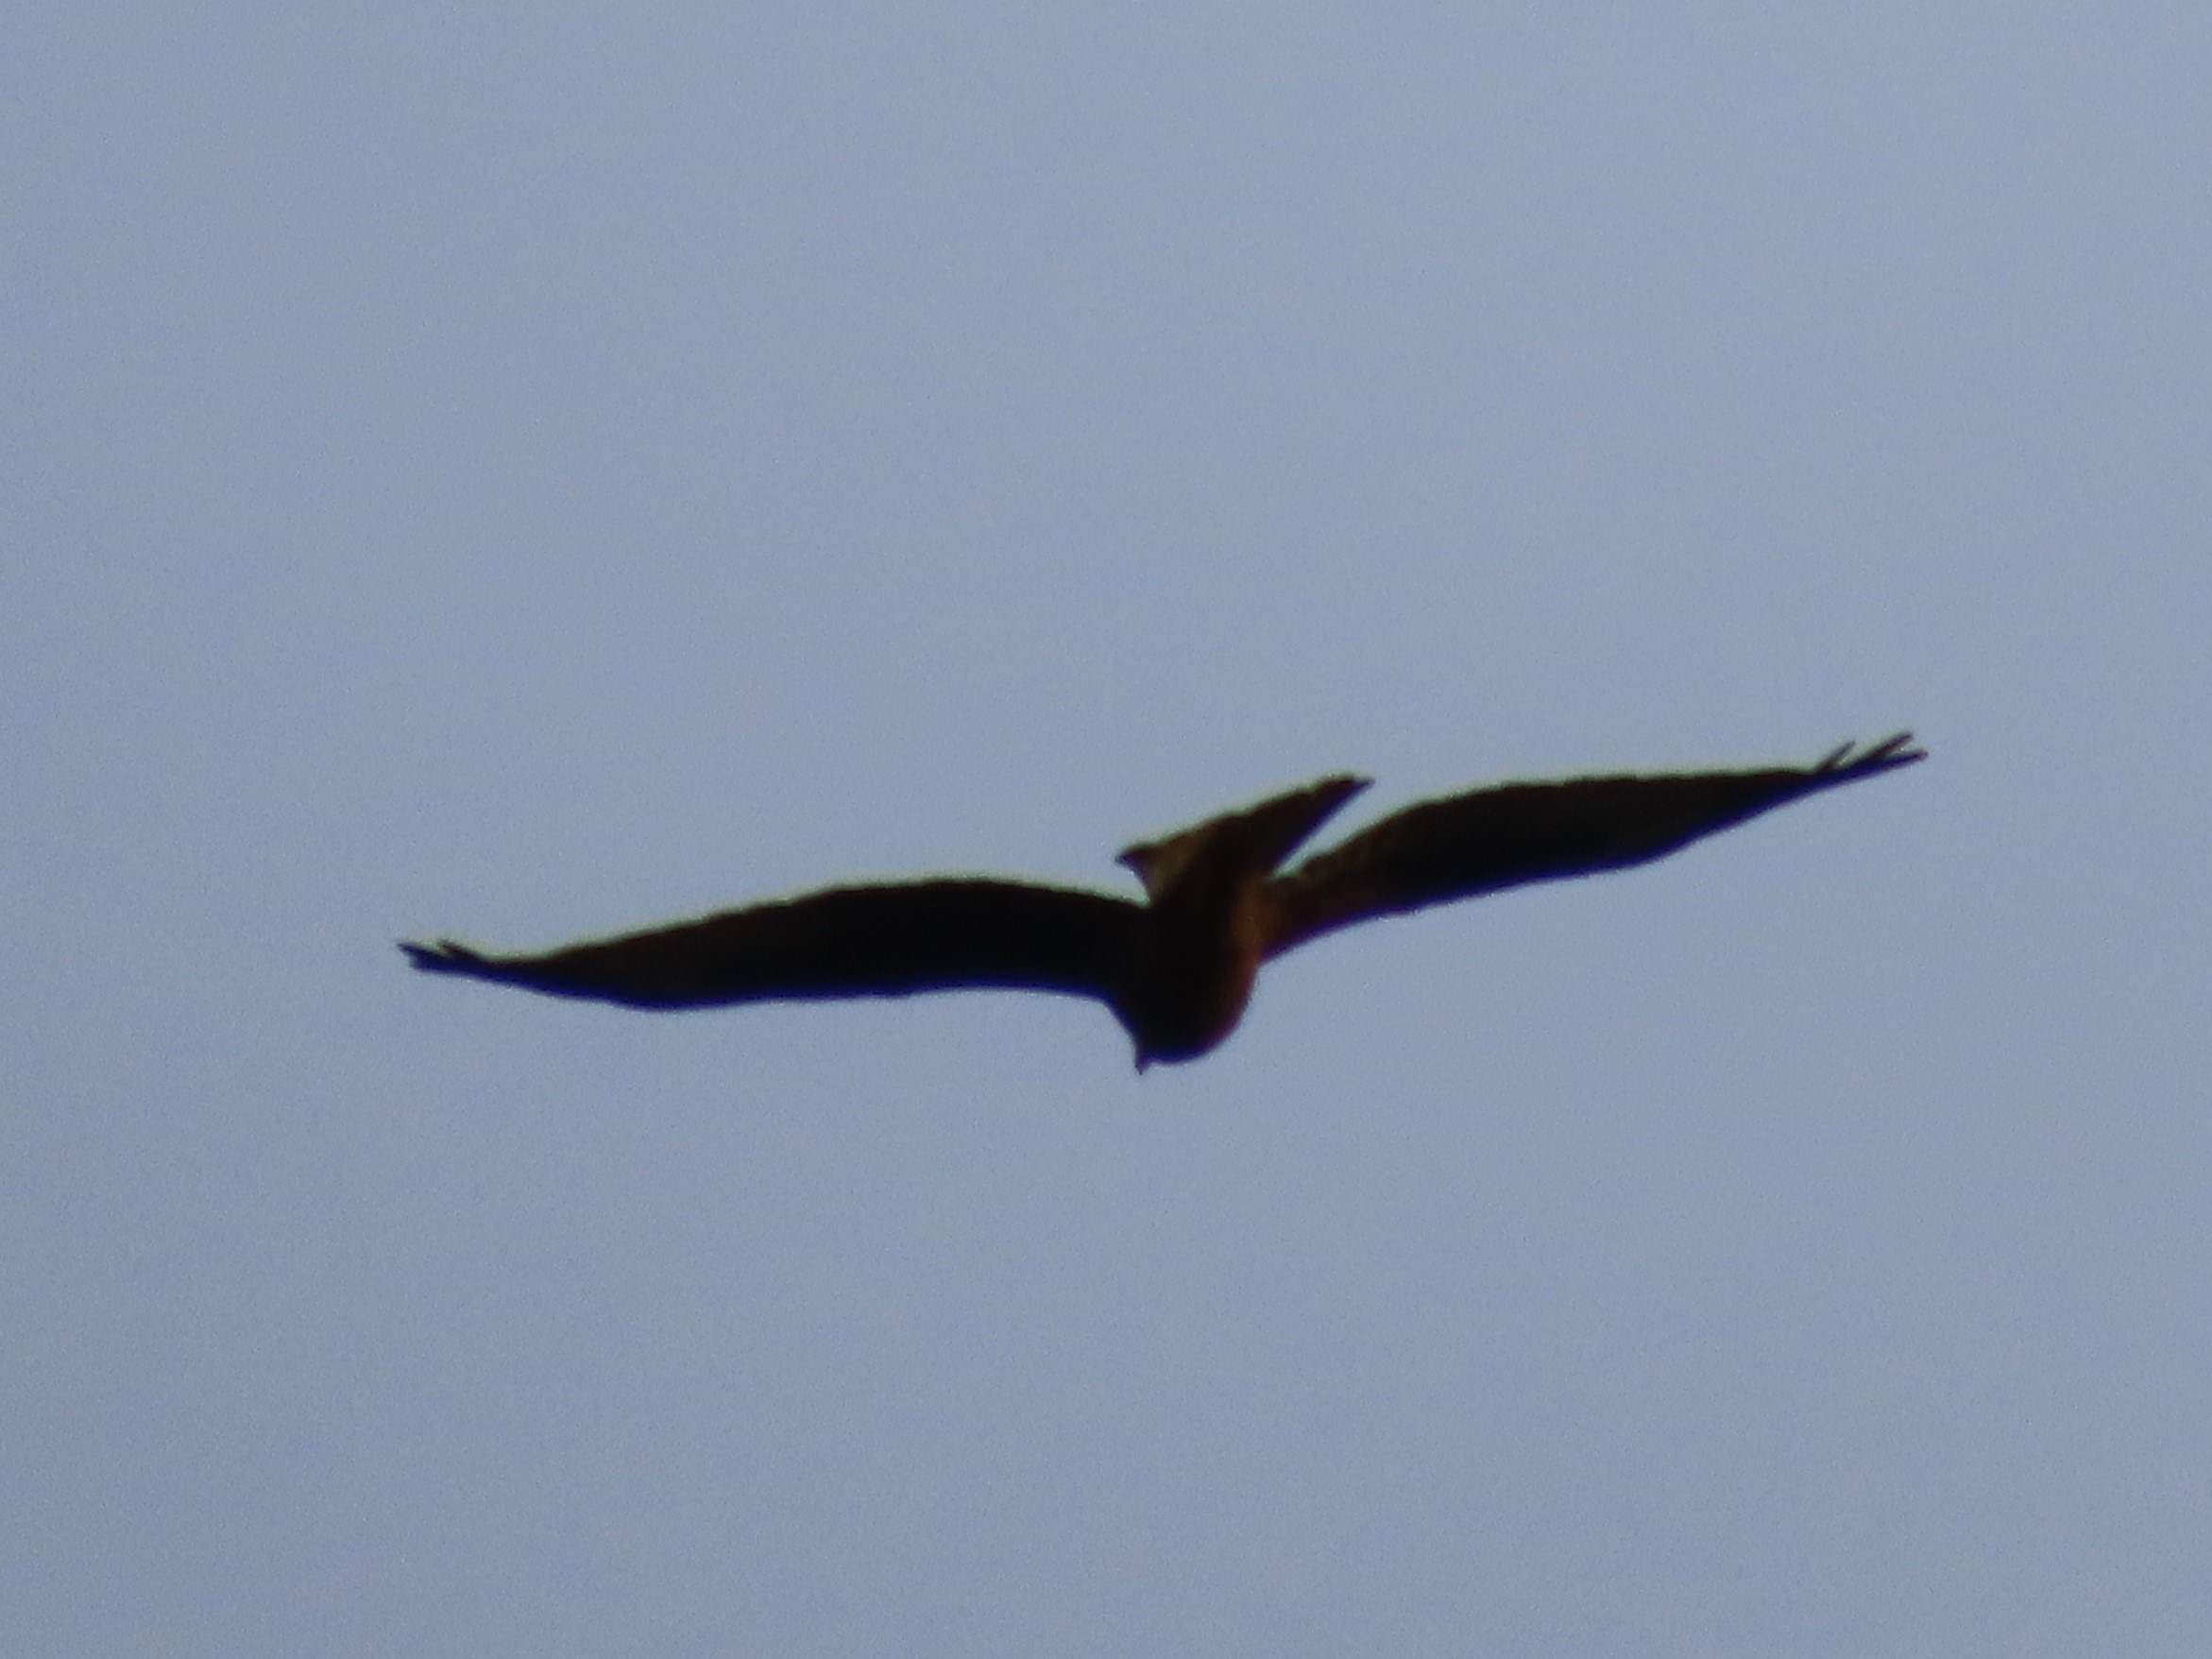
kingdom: Animalia
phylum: Chordata
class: Aves
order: Accipitriformes
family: Accipitridae
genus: Buteo
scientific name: Buteo buteo
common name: Musvåge
